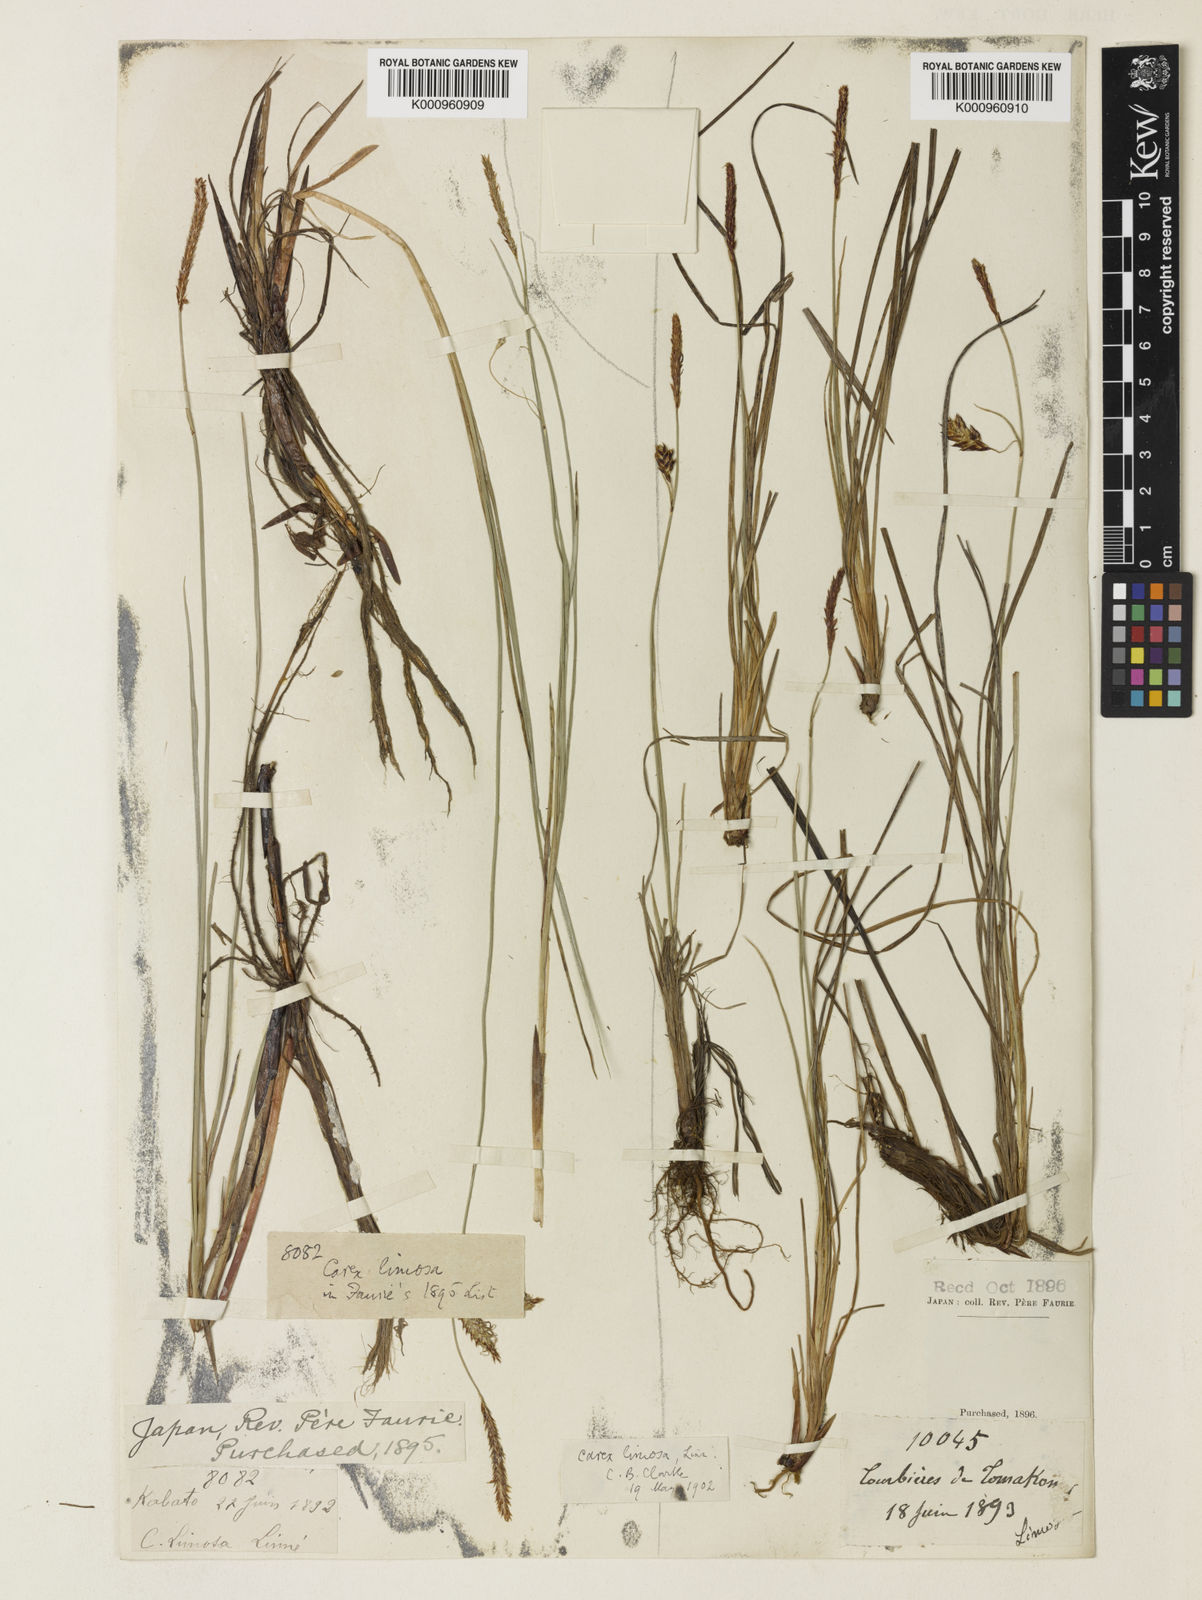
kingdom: Plantae
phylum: Tracheophyta
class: Liliopsida
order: Poales
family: Cyperaceae
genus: Carex
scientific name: Carex limosa
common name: Bog sedge
